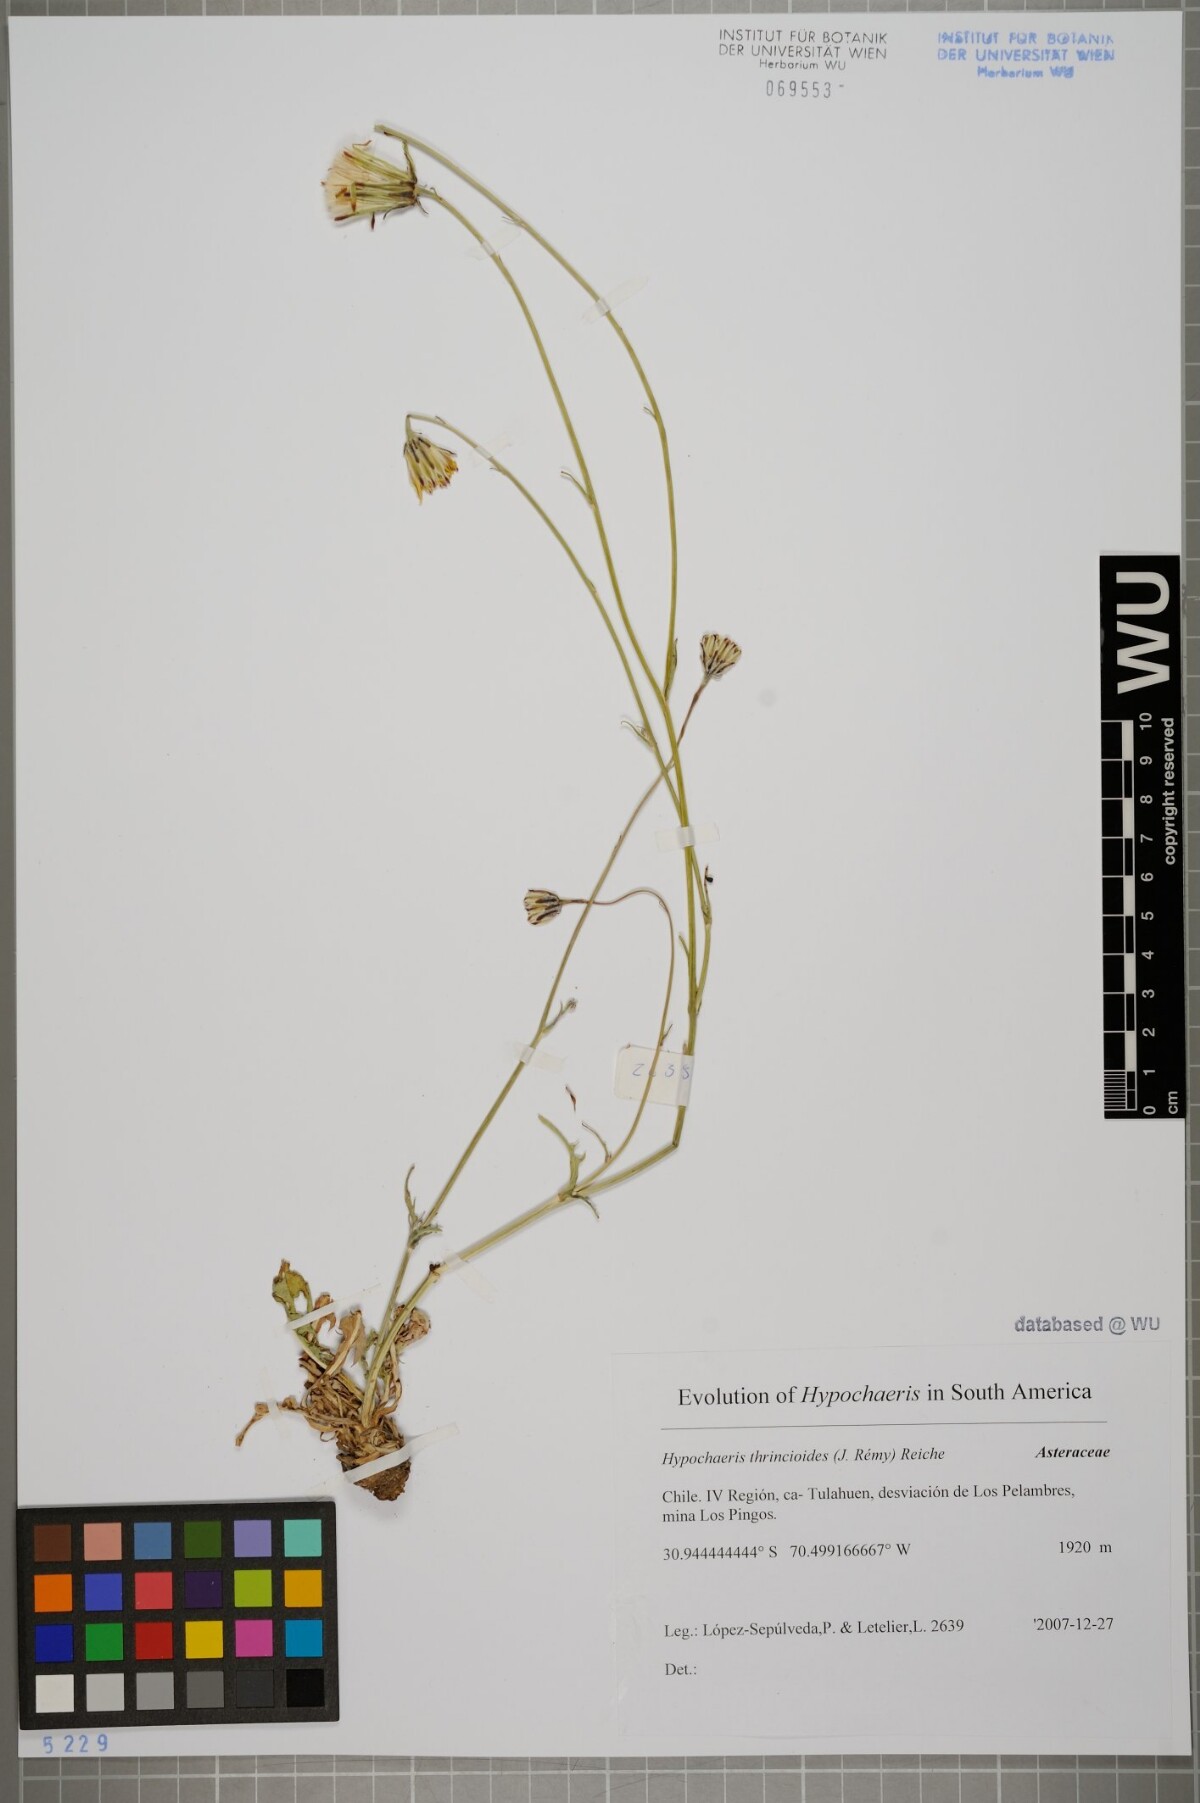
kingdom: Plantae
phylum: Tracheophyta
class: Magnoliopsida
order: Asterales
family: Asteraceae
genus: Hypochaeris
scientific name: Hypochaeris apargioides
